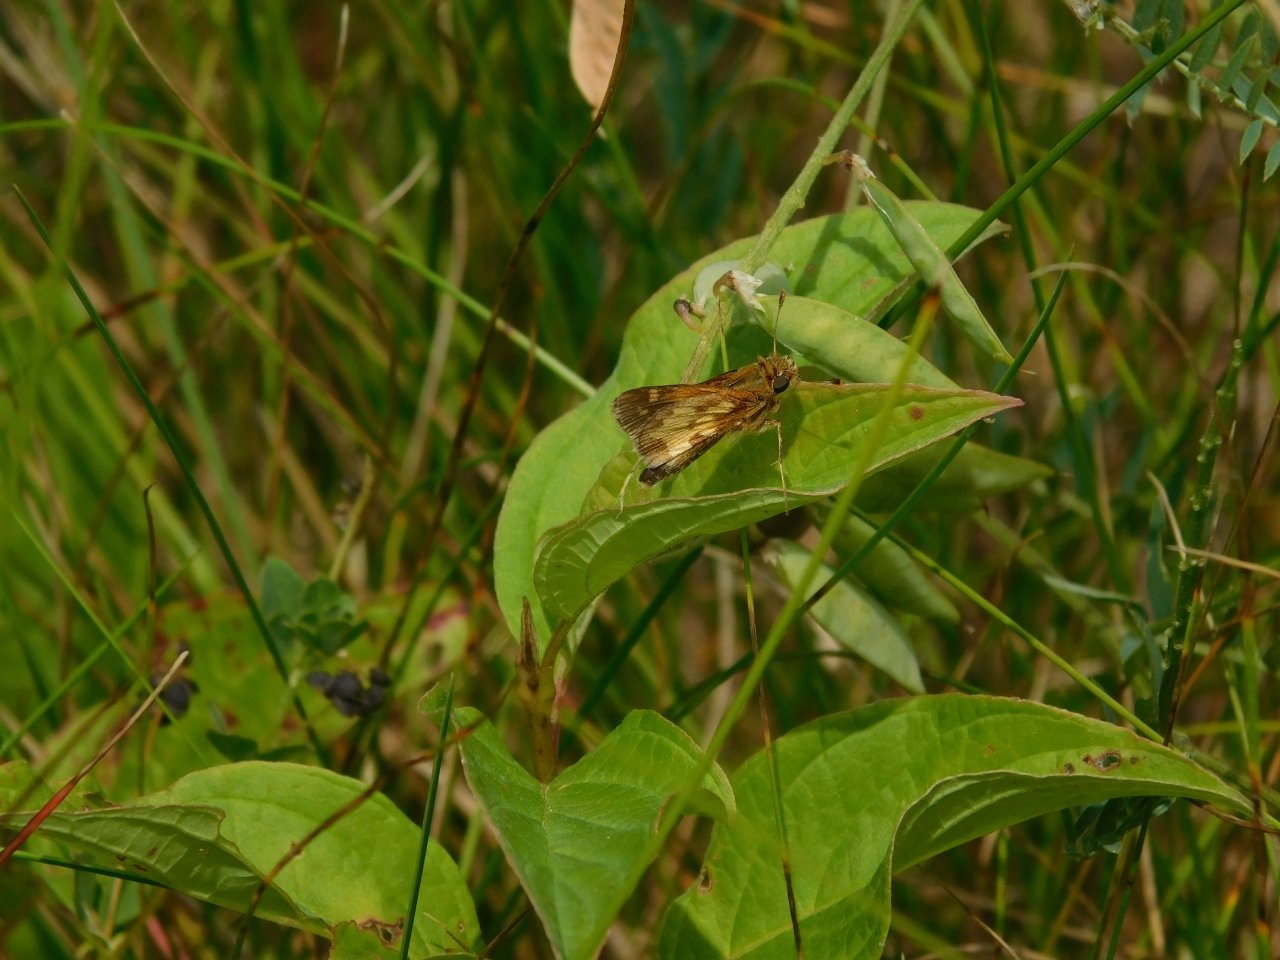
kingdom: Animalia
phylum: Arthropoda
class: Insecta
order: Lepidoptera
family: Hesperiidae
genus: Polites
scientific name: Polites coras
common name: Peck's Skipper
